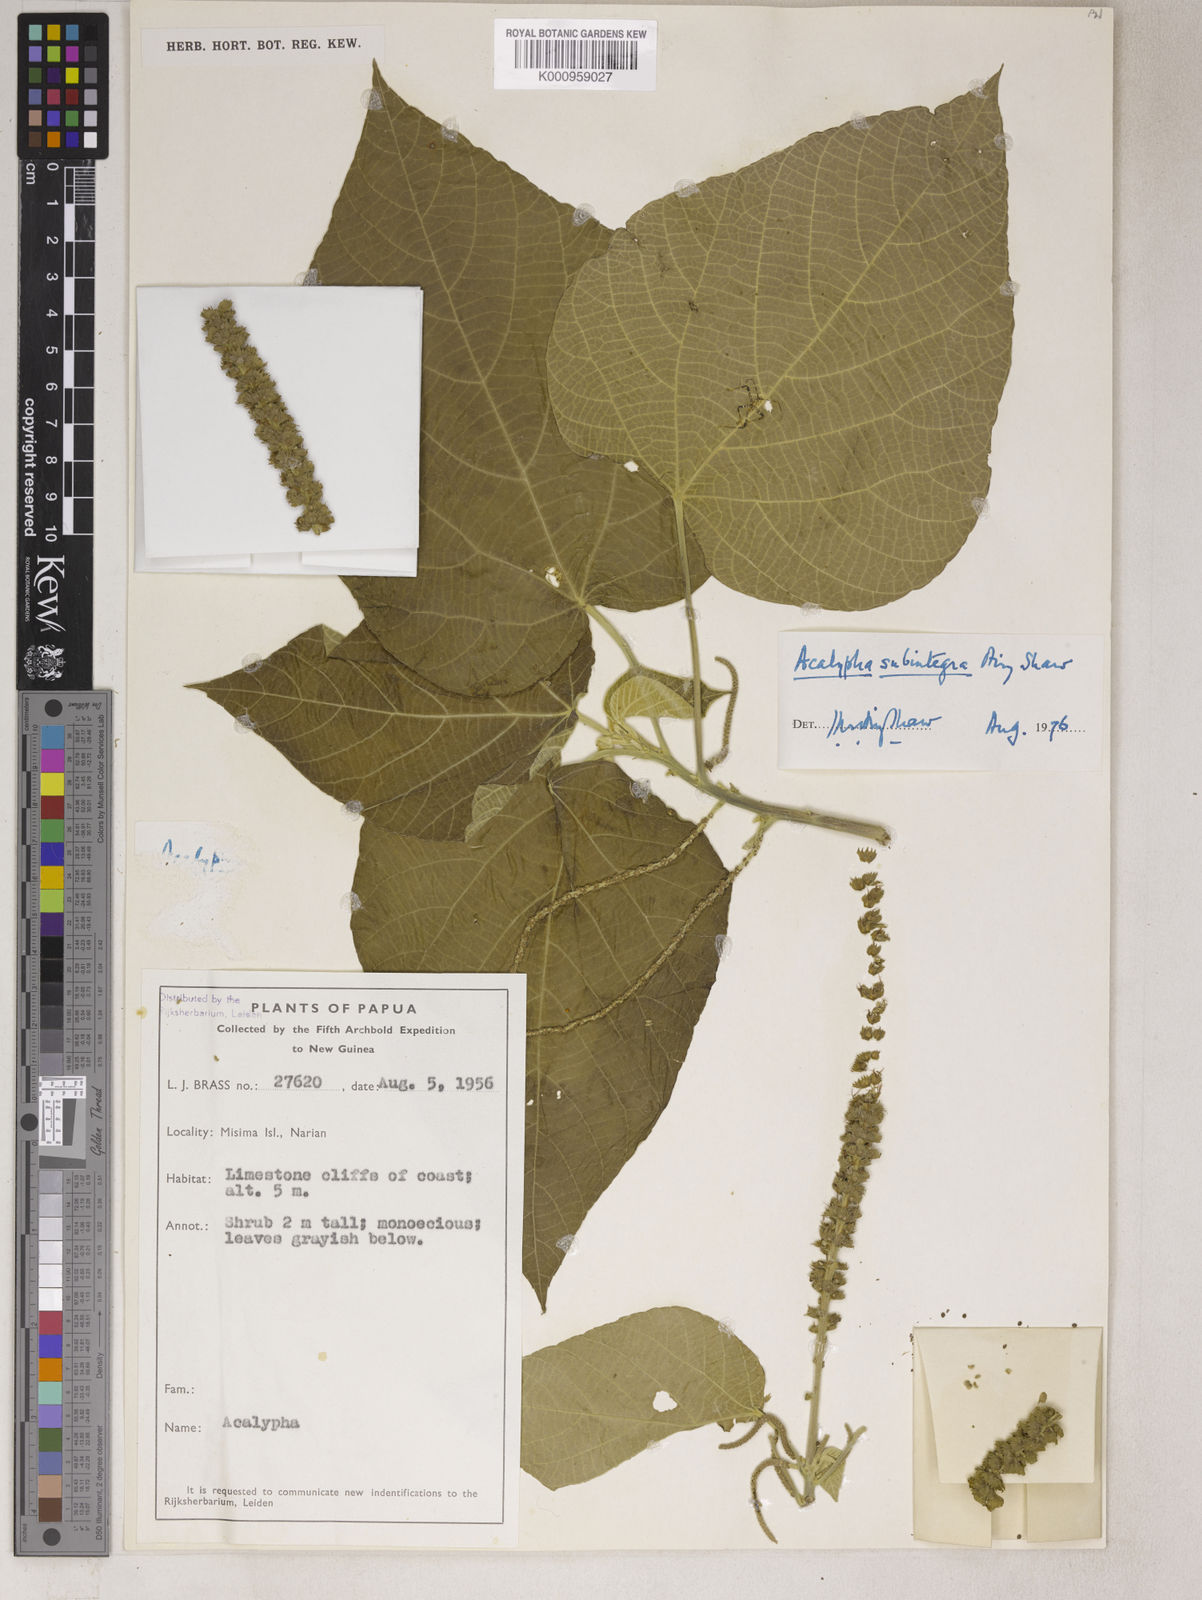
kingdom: Plantae
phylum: Tracheophyta
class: Magnoliopsida
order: Malpighiales
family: Euphorbiaceae
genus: Acalypha
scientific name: Acalypha subintegra
